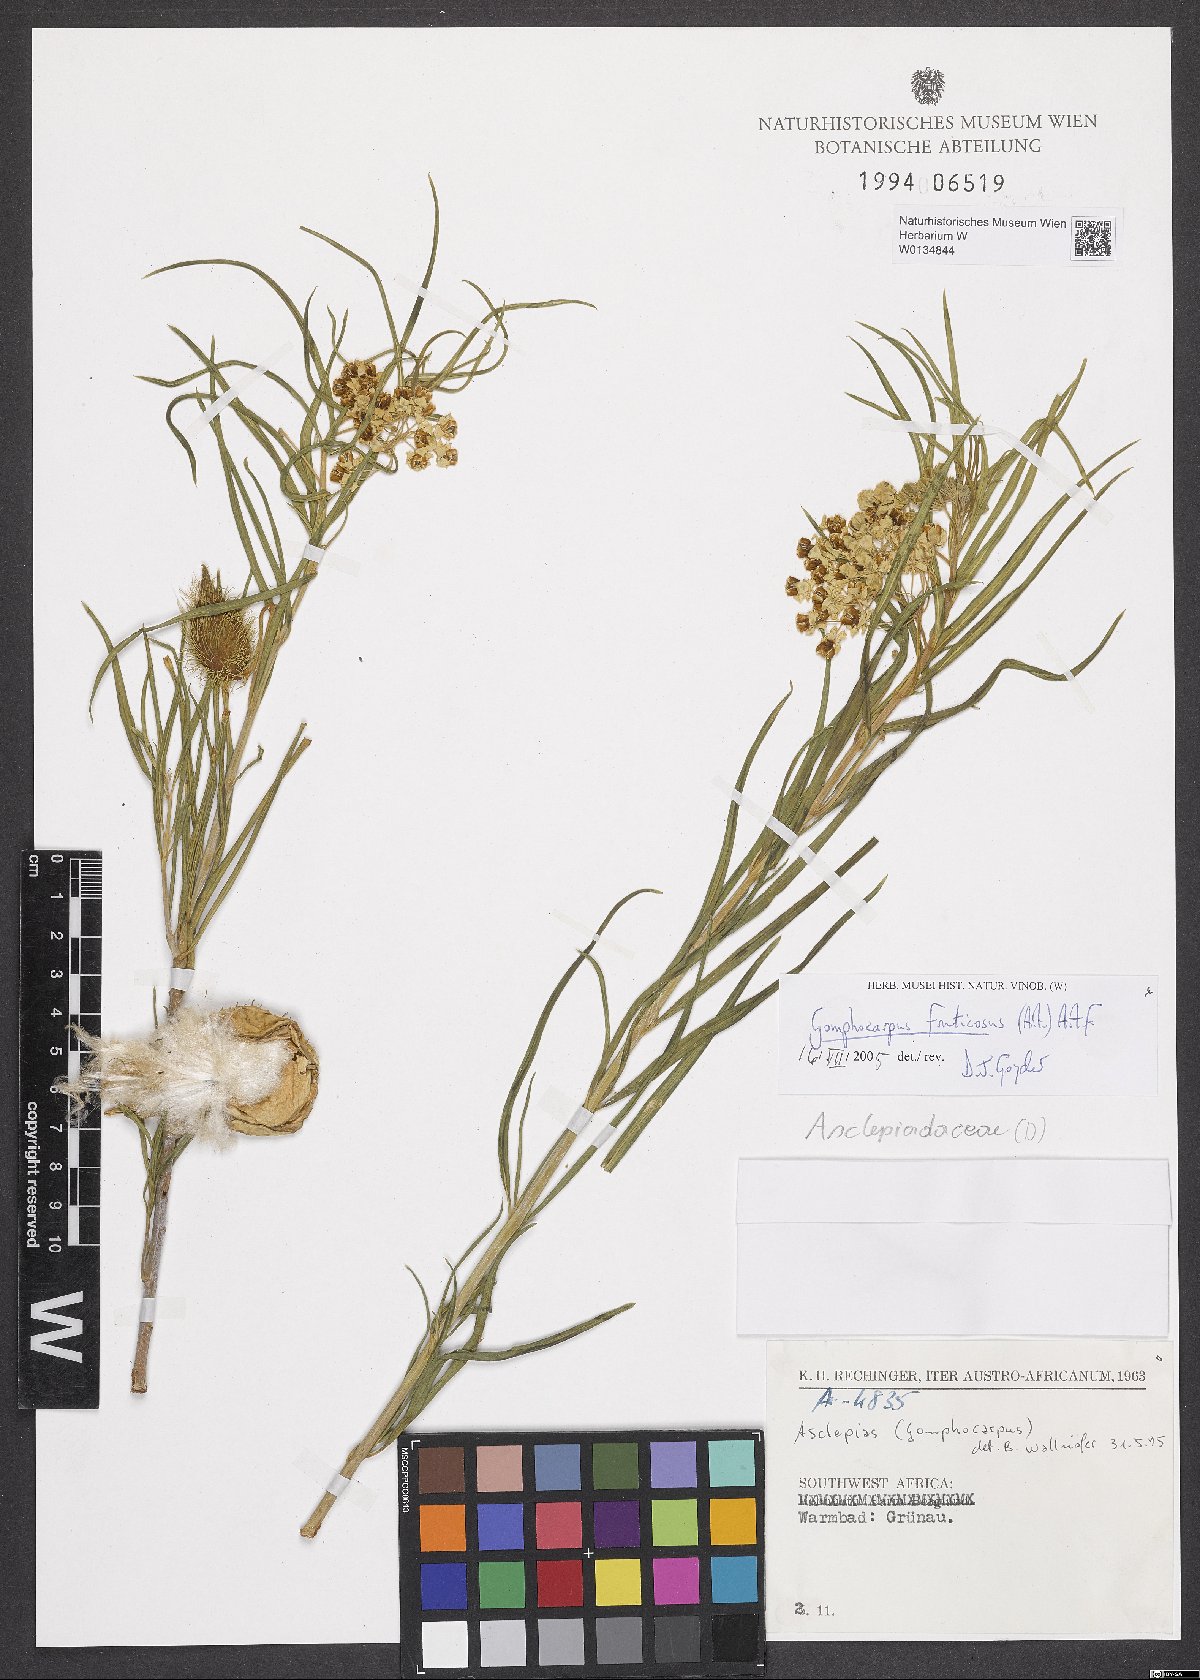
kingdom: Plantae
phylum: Tracheophyta
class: Magnoliopsida
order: Gentianales
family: Apocynaceae
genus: Gomphocarpus
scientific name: Gomphocarpus fruticosus
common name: Milkweed
